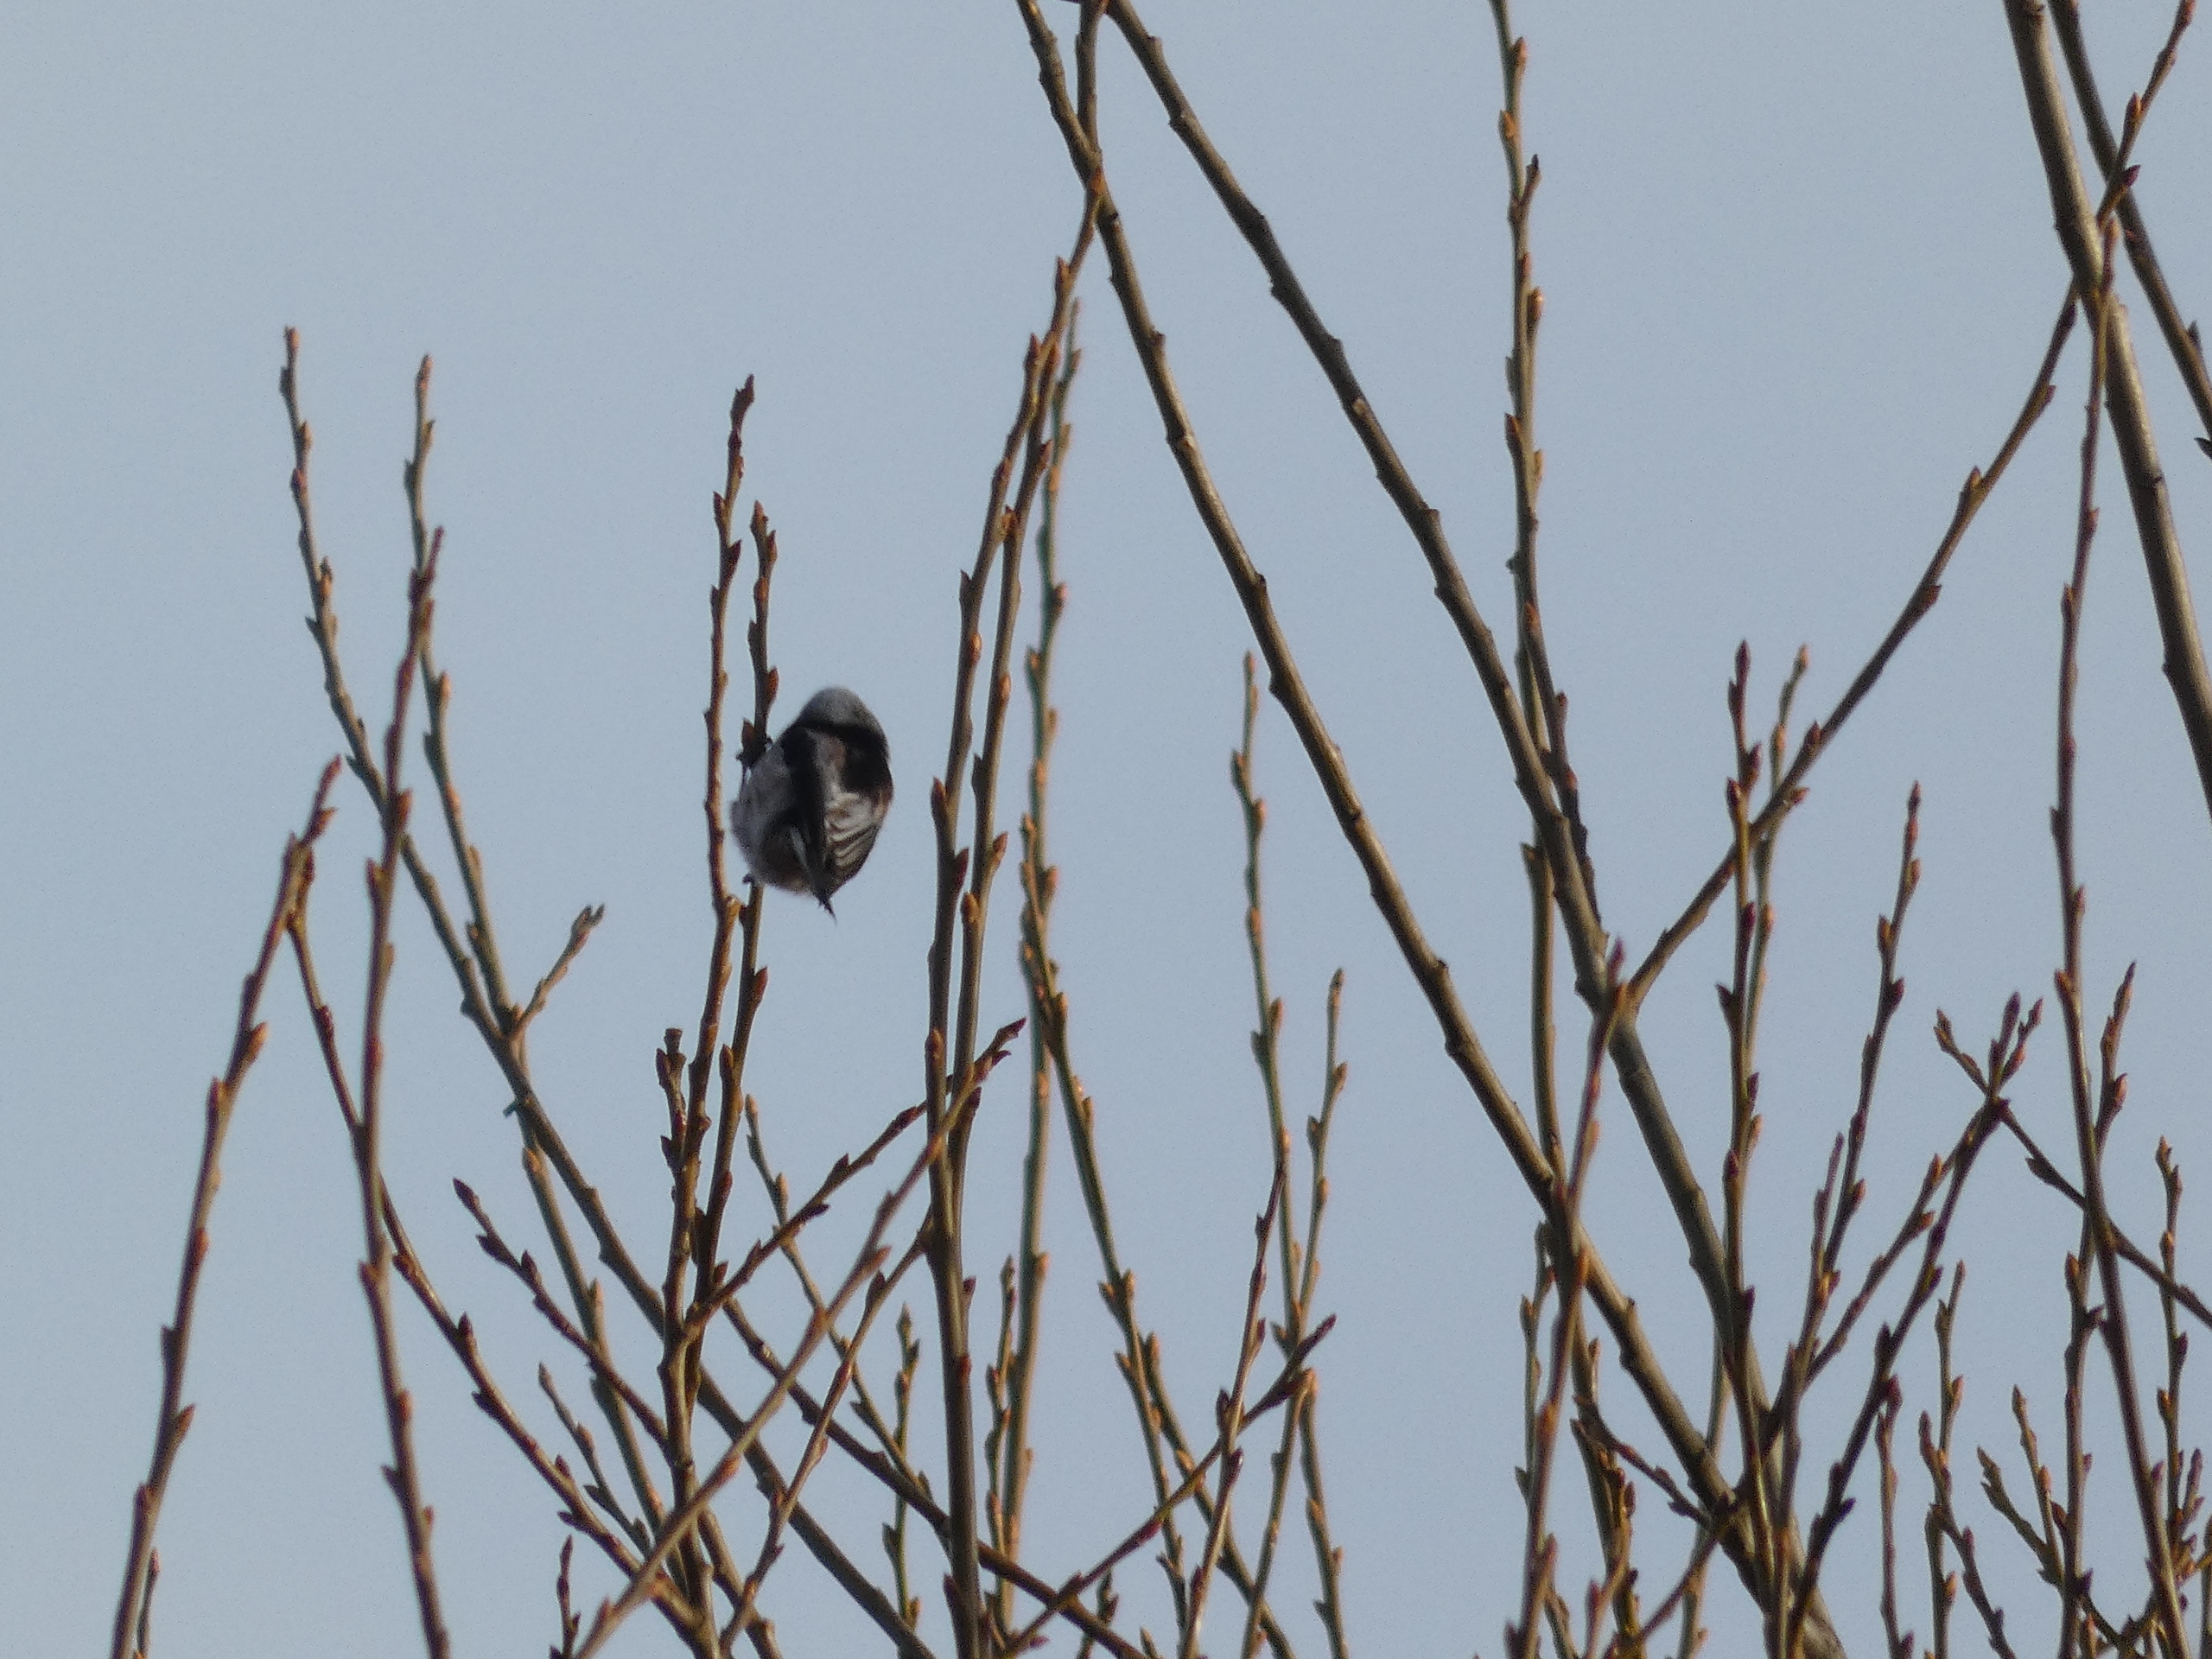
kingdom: Animalia
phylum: Chordata
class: Aves
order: Passeriformes
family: Aegithalidae
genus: Aegithalos
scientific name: Aegithalos caudatus
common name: Halemejse
